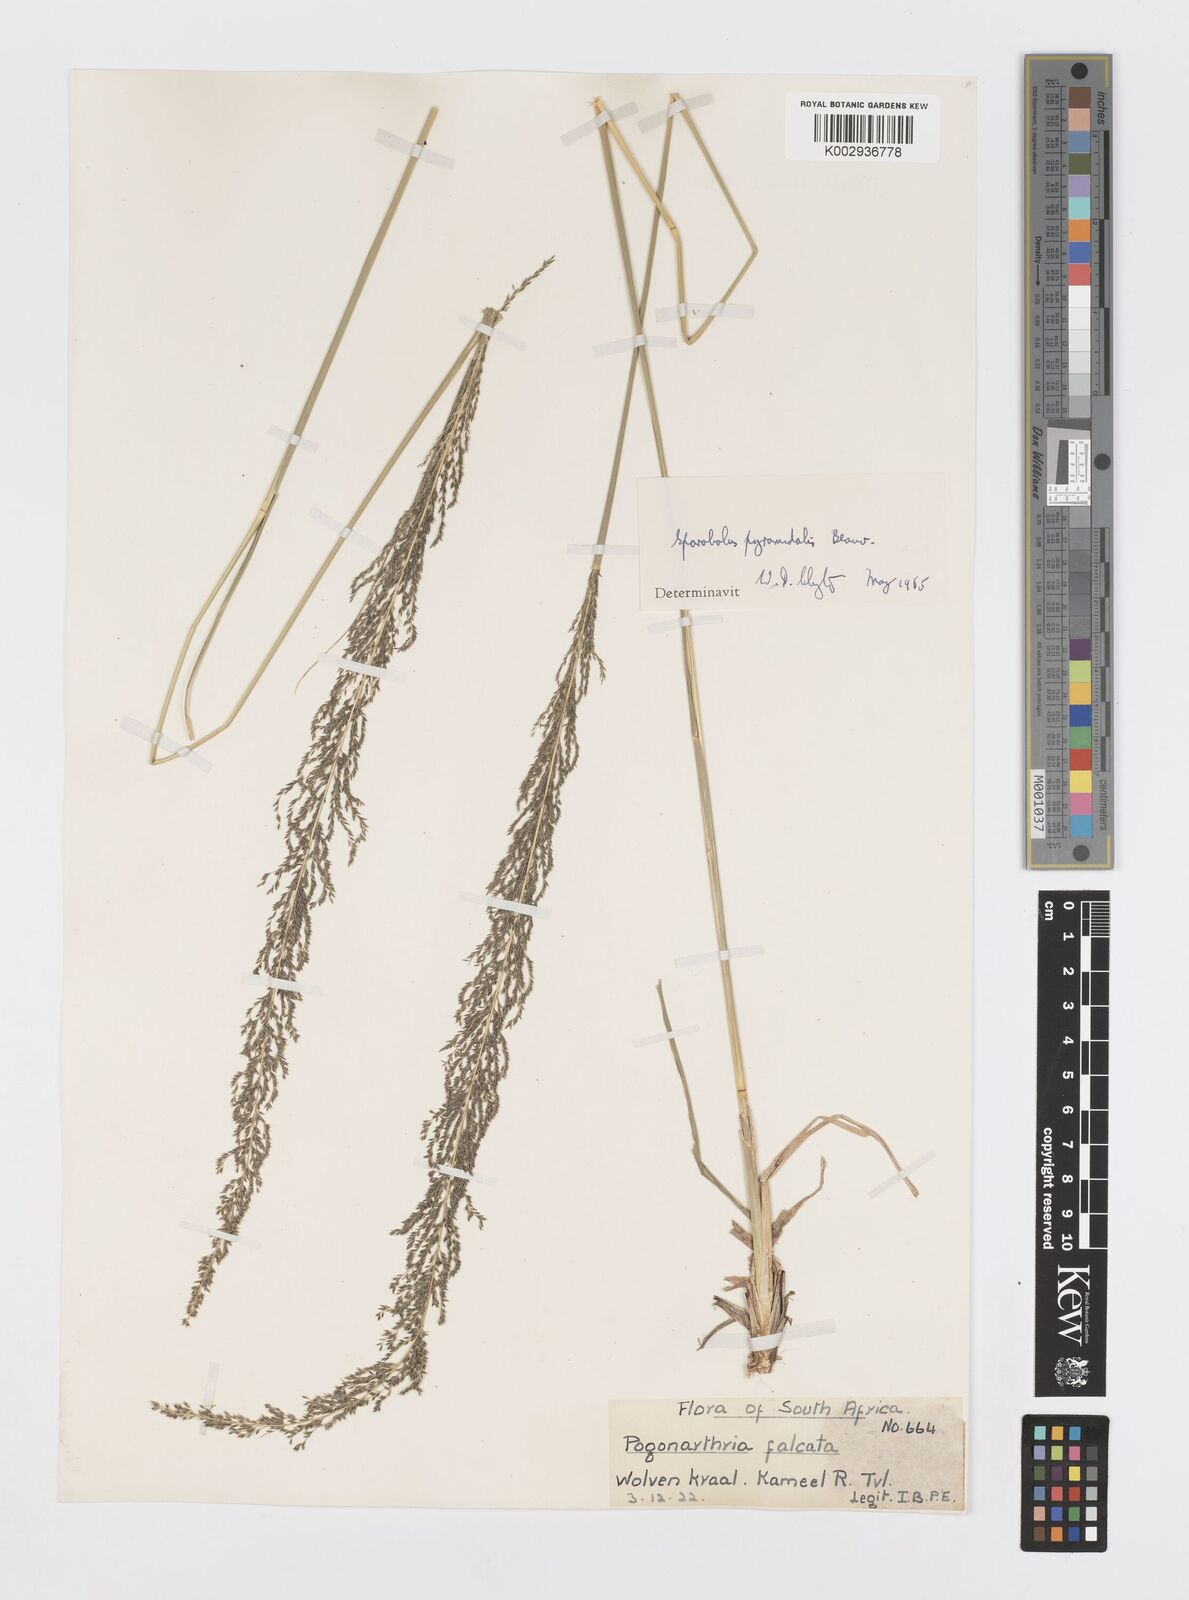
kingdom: Plantae
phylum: Tracheophyta
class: Liliopsida
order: Poales
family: Poaceae
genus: Sporobolus
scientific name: Sporobolus pyramidalis
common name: West indian dropseed
